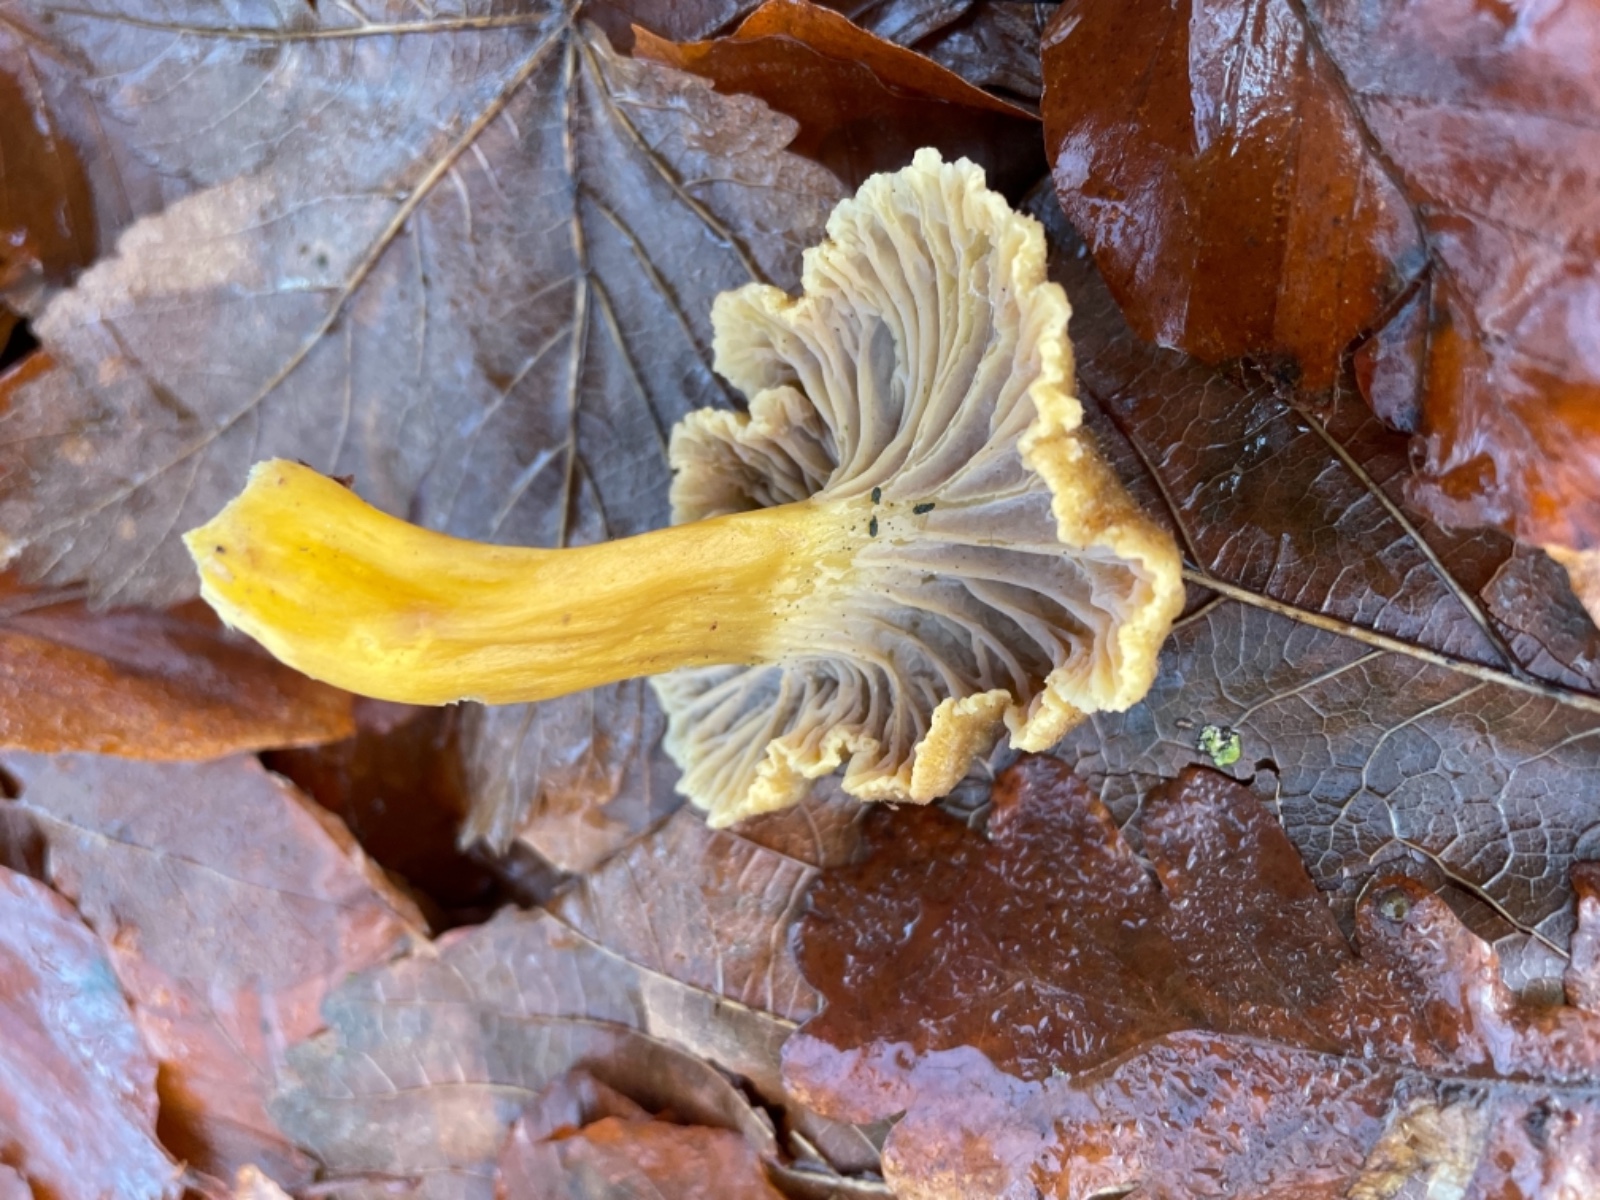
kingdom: Fungi
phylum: Basidiomycota
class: Agaricomycetes
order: Cantharellales
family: Hydnaceae
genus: Craterellus
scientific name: Craterellus tubaeformis
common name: tragt-kantarel
